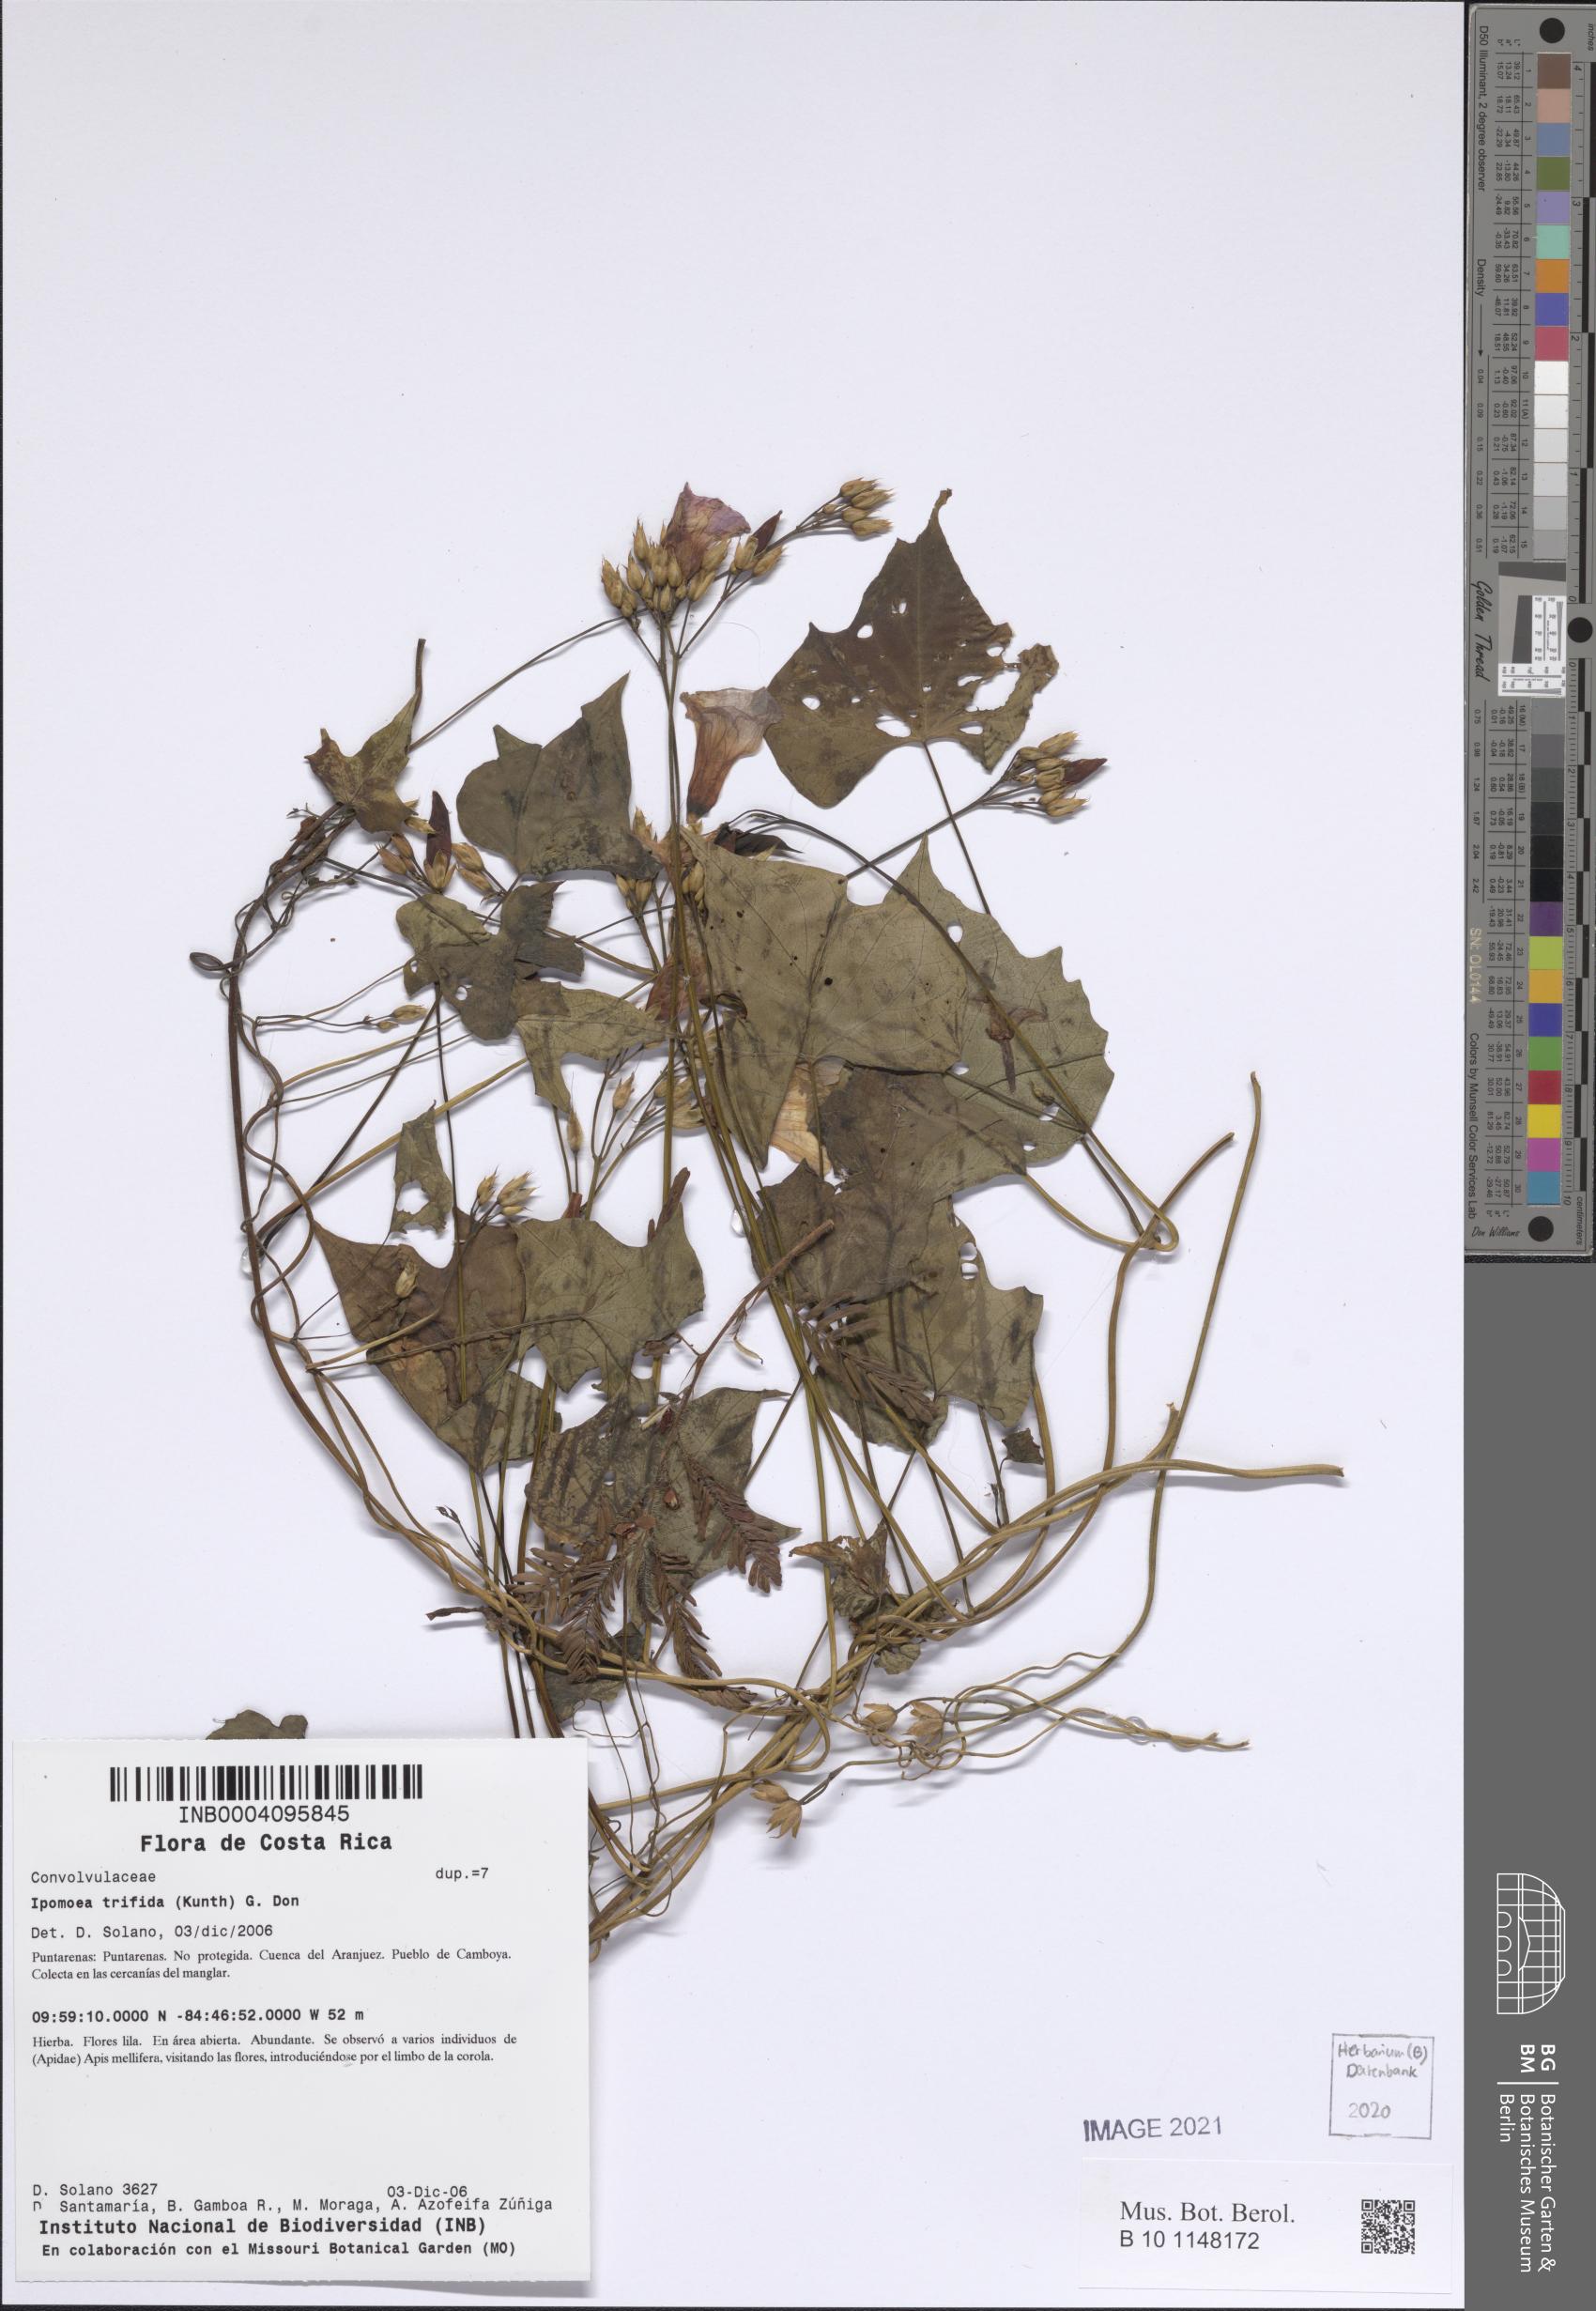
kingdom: Plantae
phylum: Tracheophyta
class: Magnoliopsida
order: Solanales
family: Convolvulaceae
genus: Ipomoea
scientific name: Ipomoea trifida
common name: Cotton morningglory
